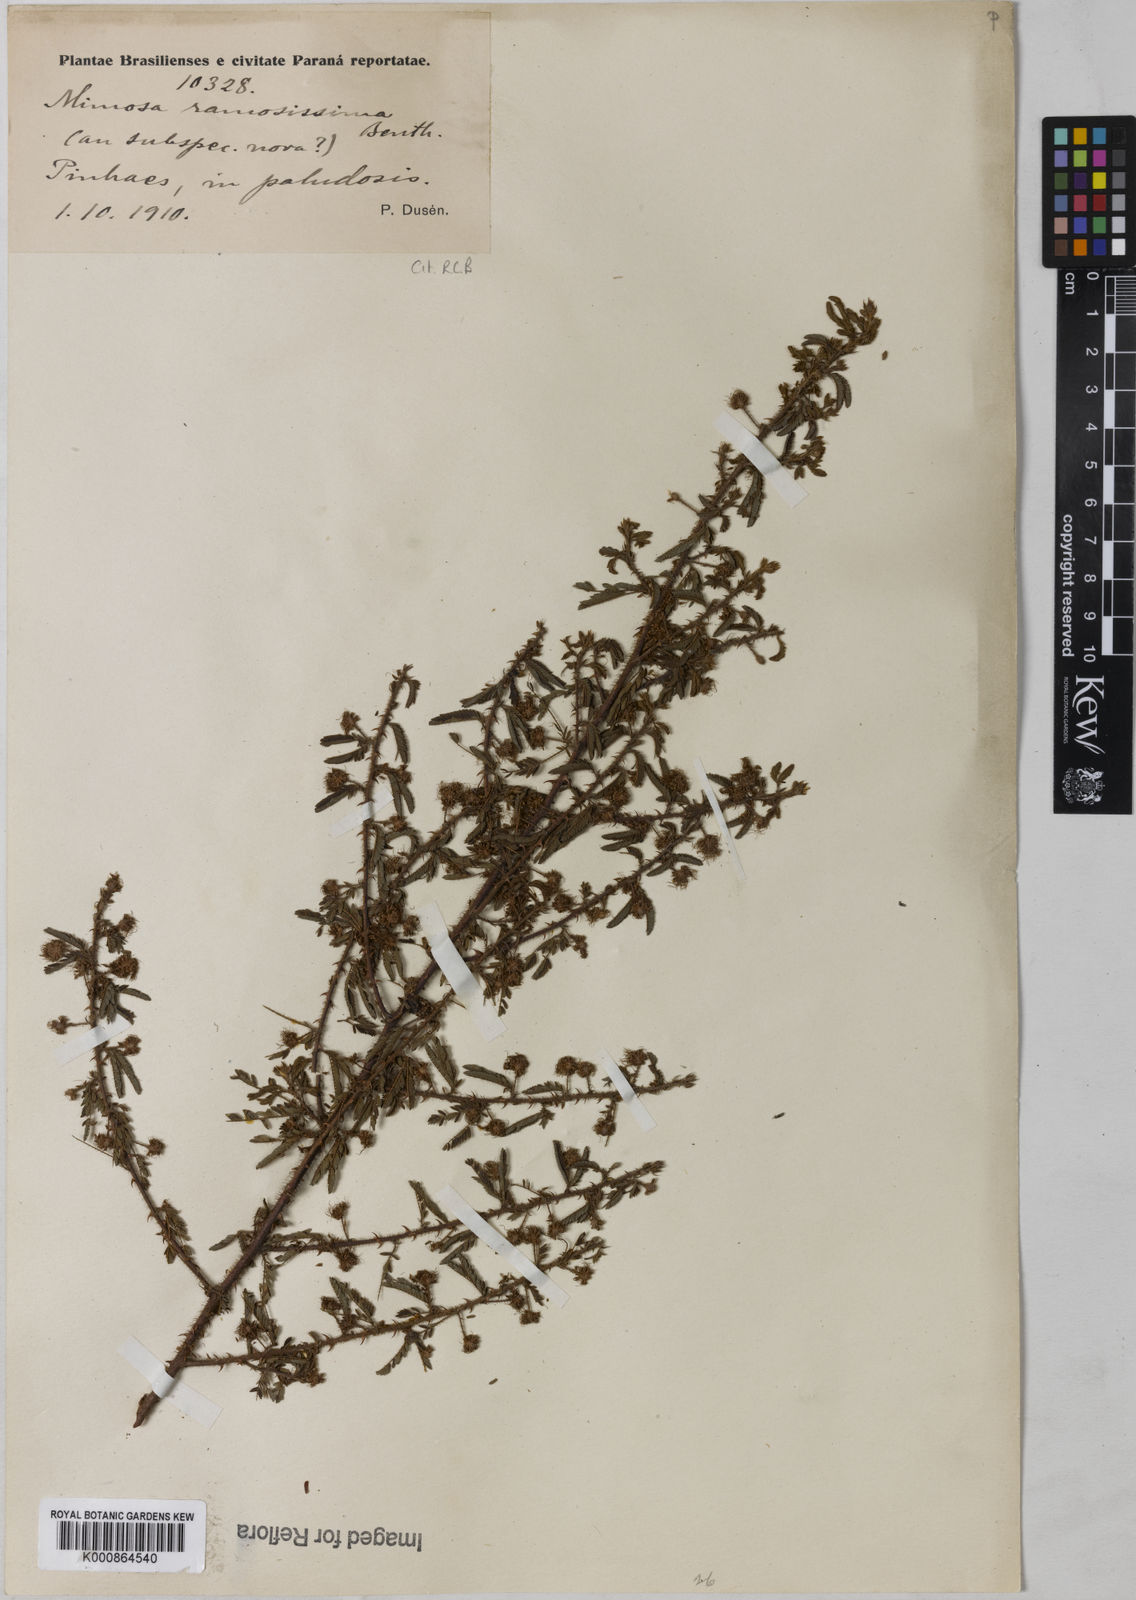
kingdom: Plantae
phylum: Tracheophyta
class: Magnoliopsida
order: Fabales
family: Fabaceae
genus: Mimosa
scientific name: Mimosa ramosissima
